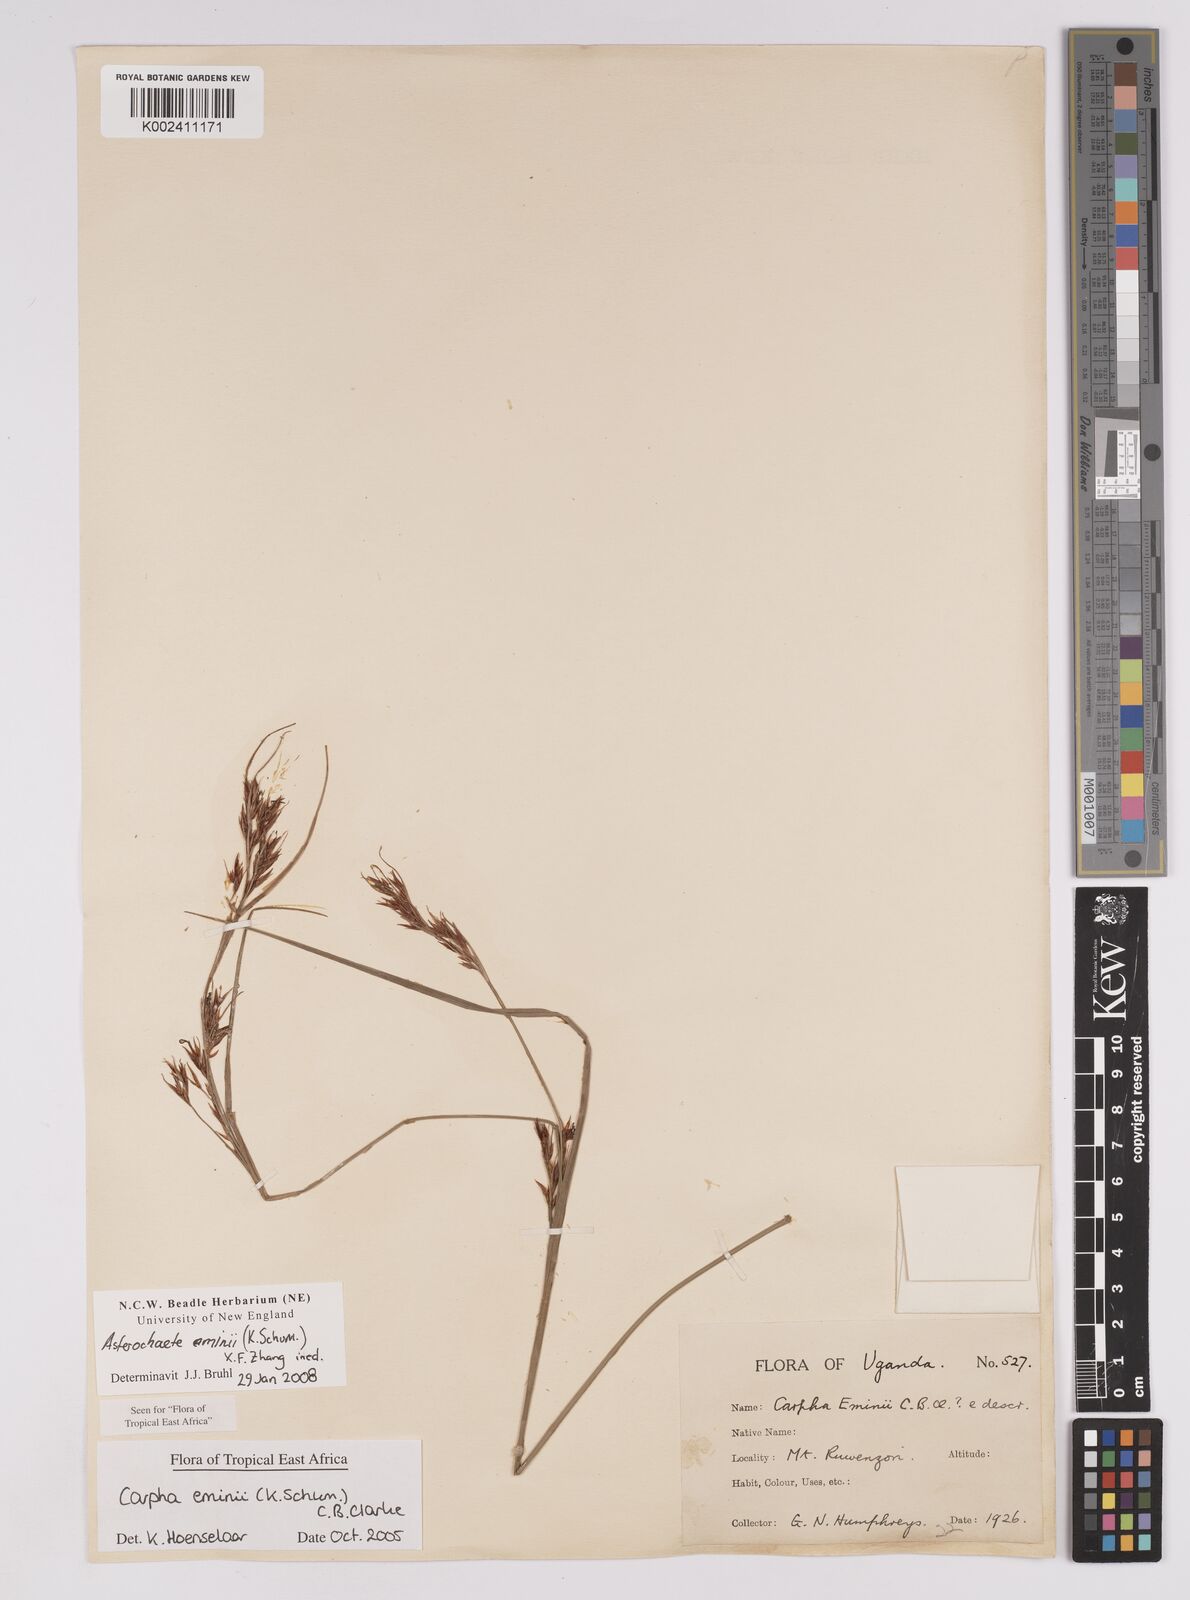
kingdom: Plantae
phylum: Tracheophyta
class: Liliopsida
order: Poales
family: Cyperaceae
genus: Carpha
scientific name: Carpha eminii
